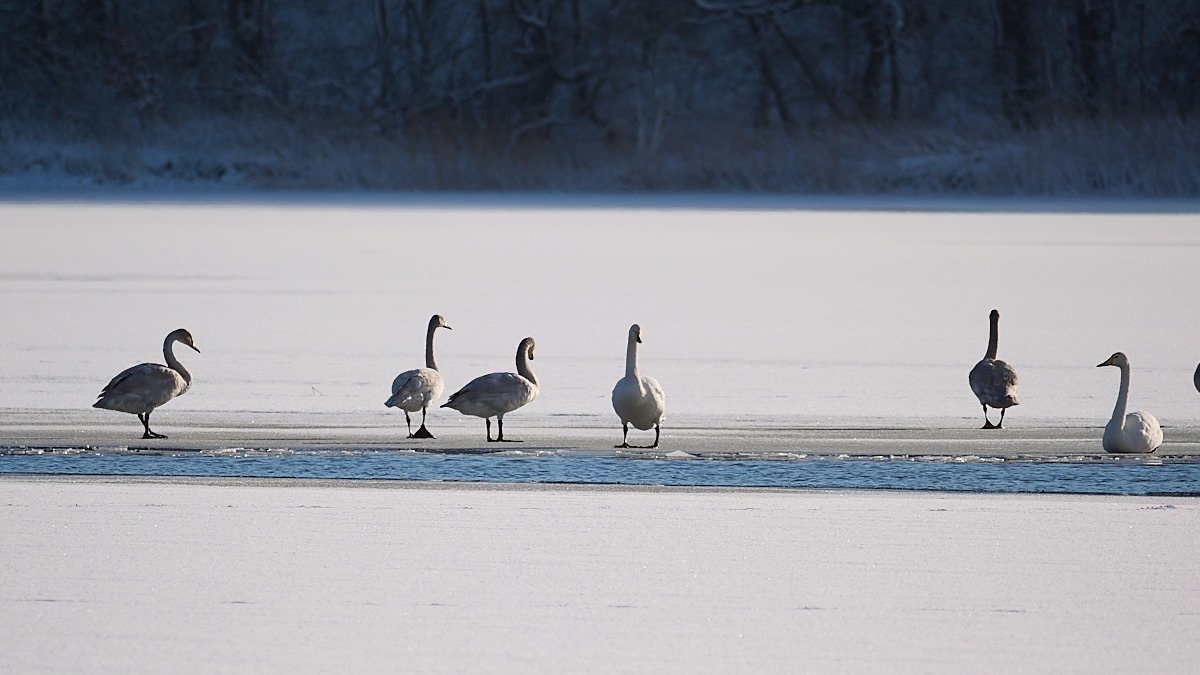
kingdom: Animalia
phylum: Chordata
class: Aves
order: Anseriformes
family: Anatidae
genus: Cygnus
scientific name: Cygnus cygnus
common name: Sangsvane
